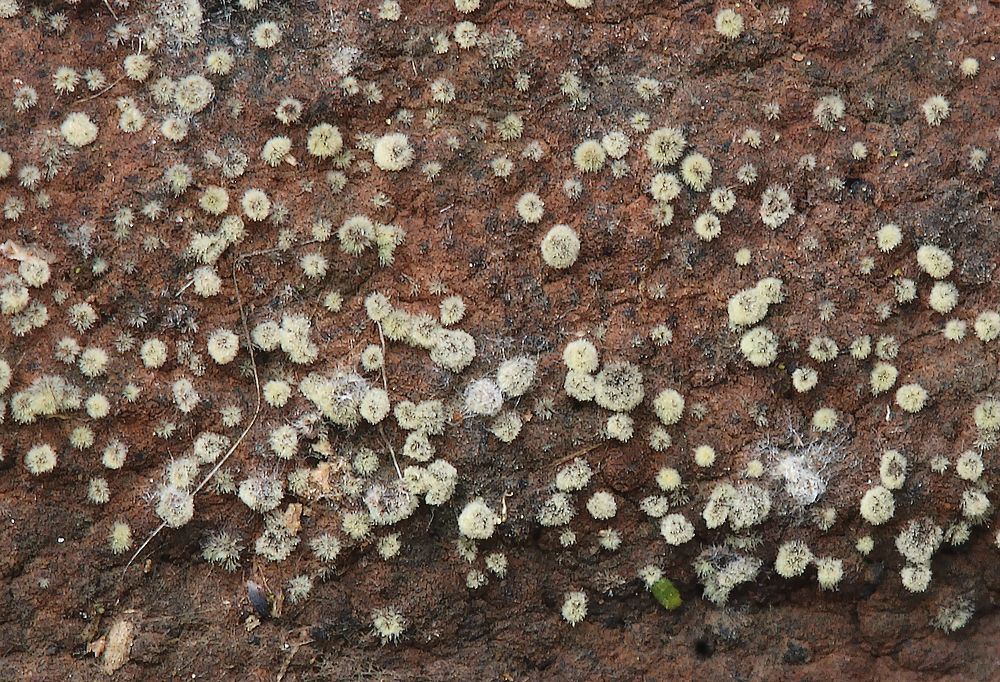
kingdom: Fungi
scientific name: Fungi
